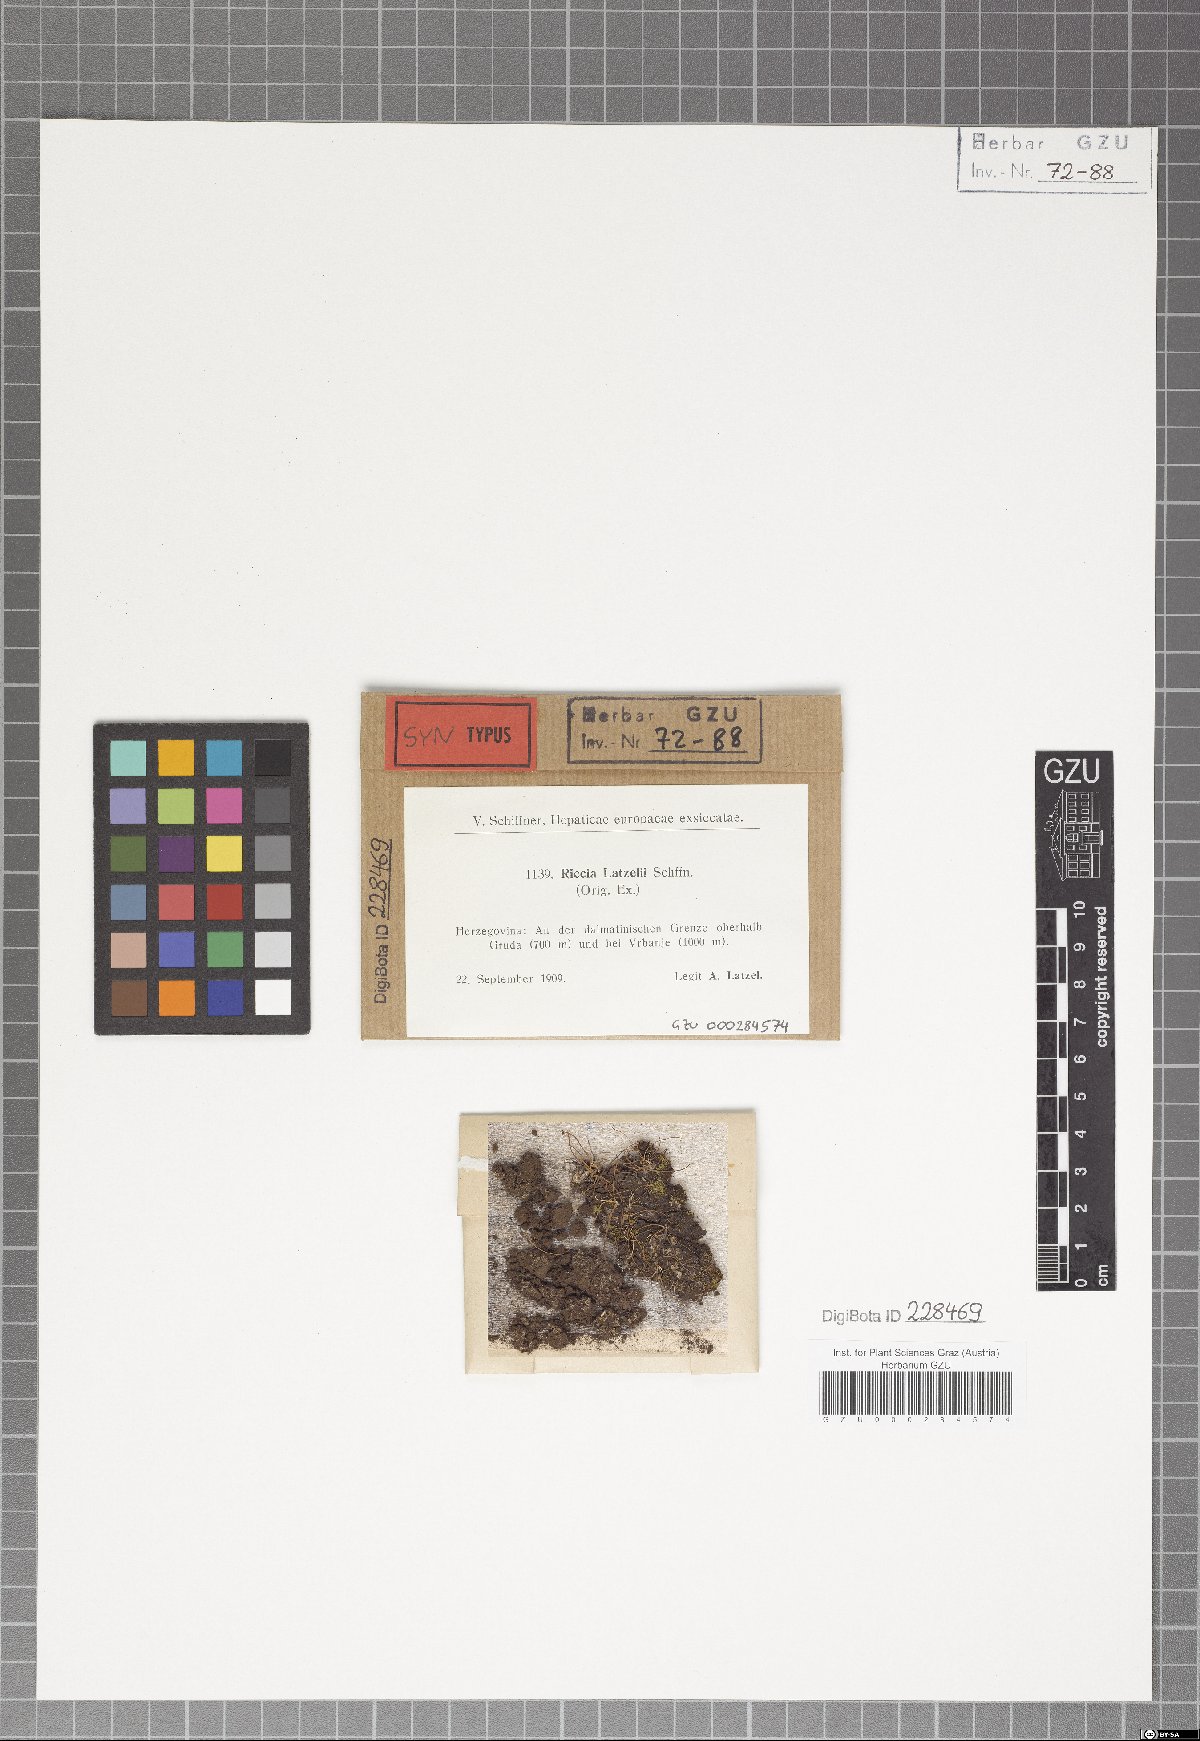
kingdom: Plantae
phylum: Marchantiophyta
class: Marchantiopsida
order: Marchantiales
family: Ricciaceae
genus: Riccia
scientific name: Riccia ciliifera
